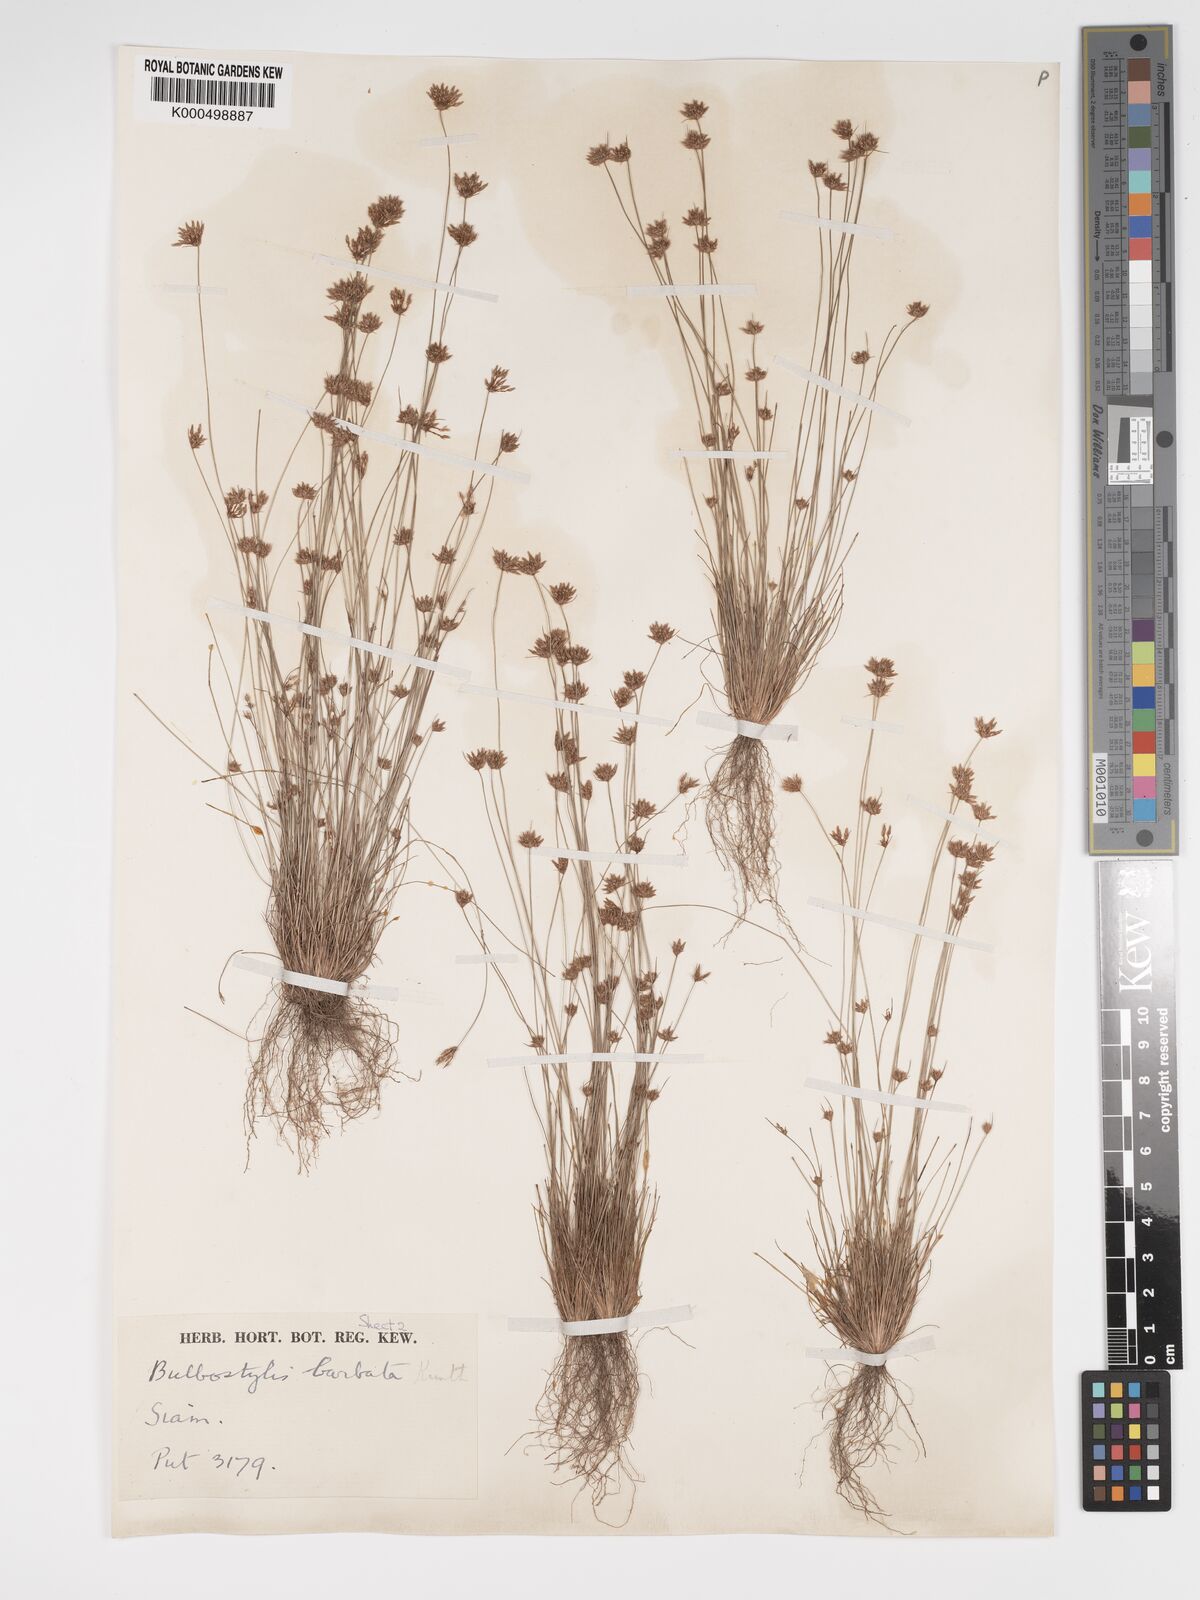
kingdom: Plantae
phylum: Tracheophyta
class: Liliopsida
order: Poales
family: Cyperaceae
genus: Bulbostylis
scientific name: Bulbostylis barbata
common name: Watergrass
